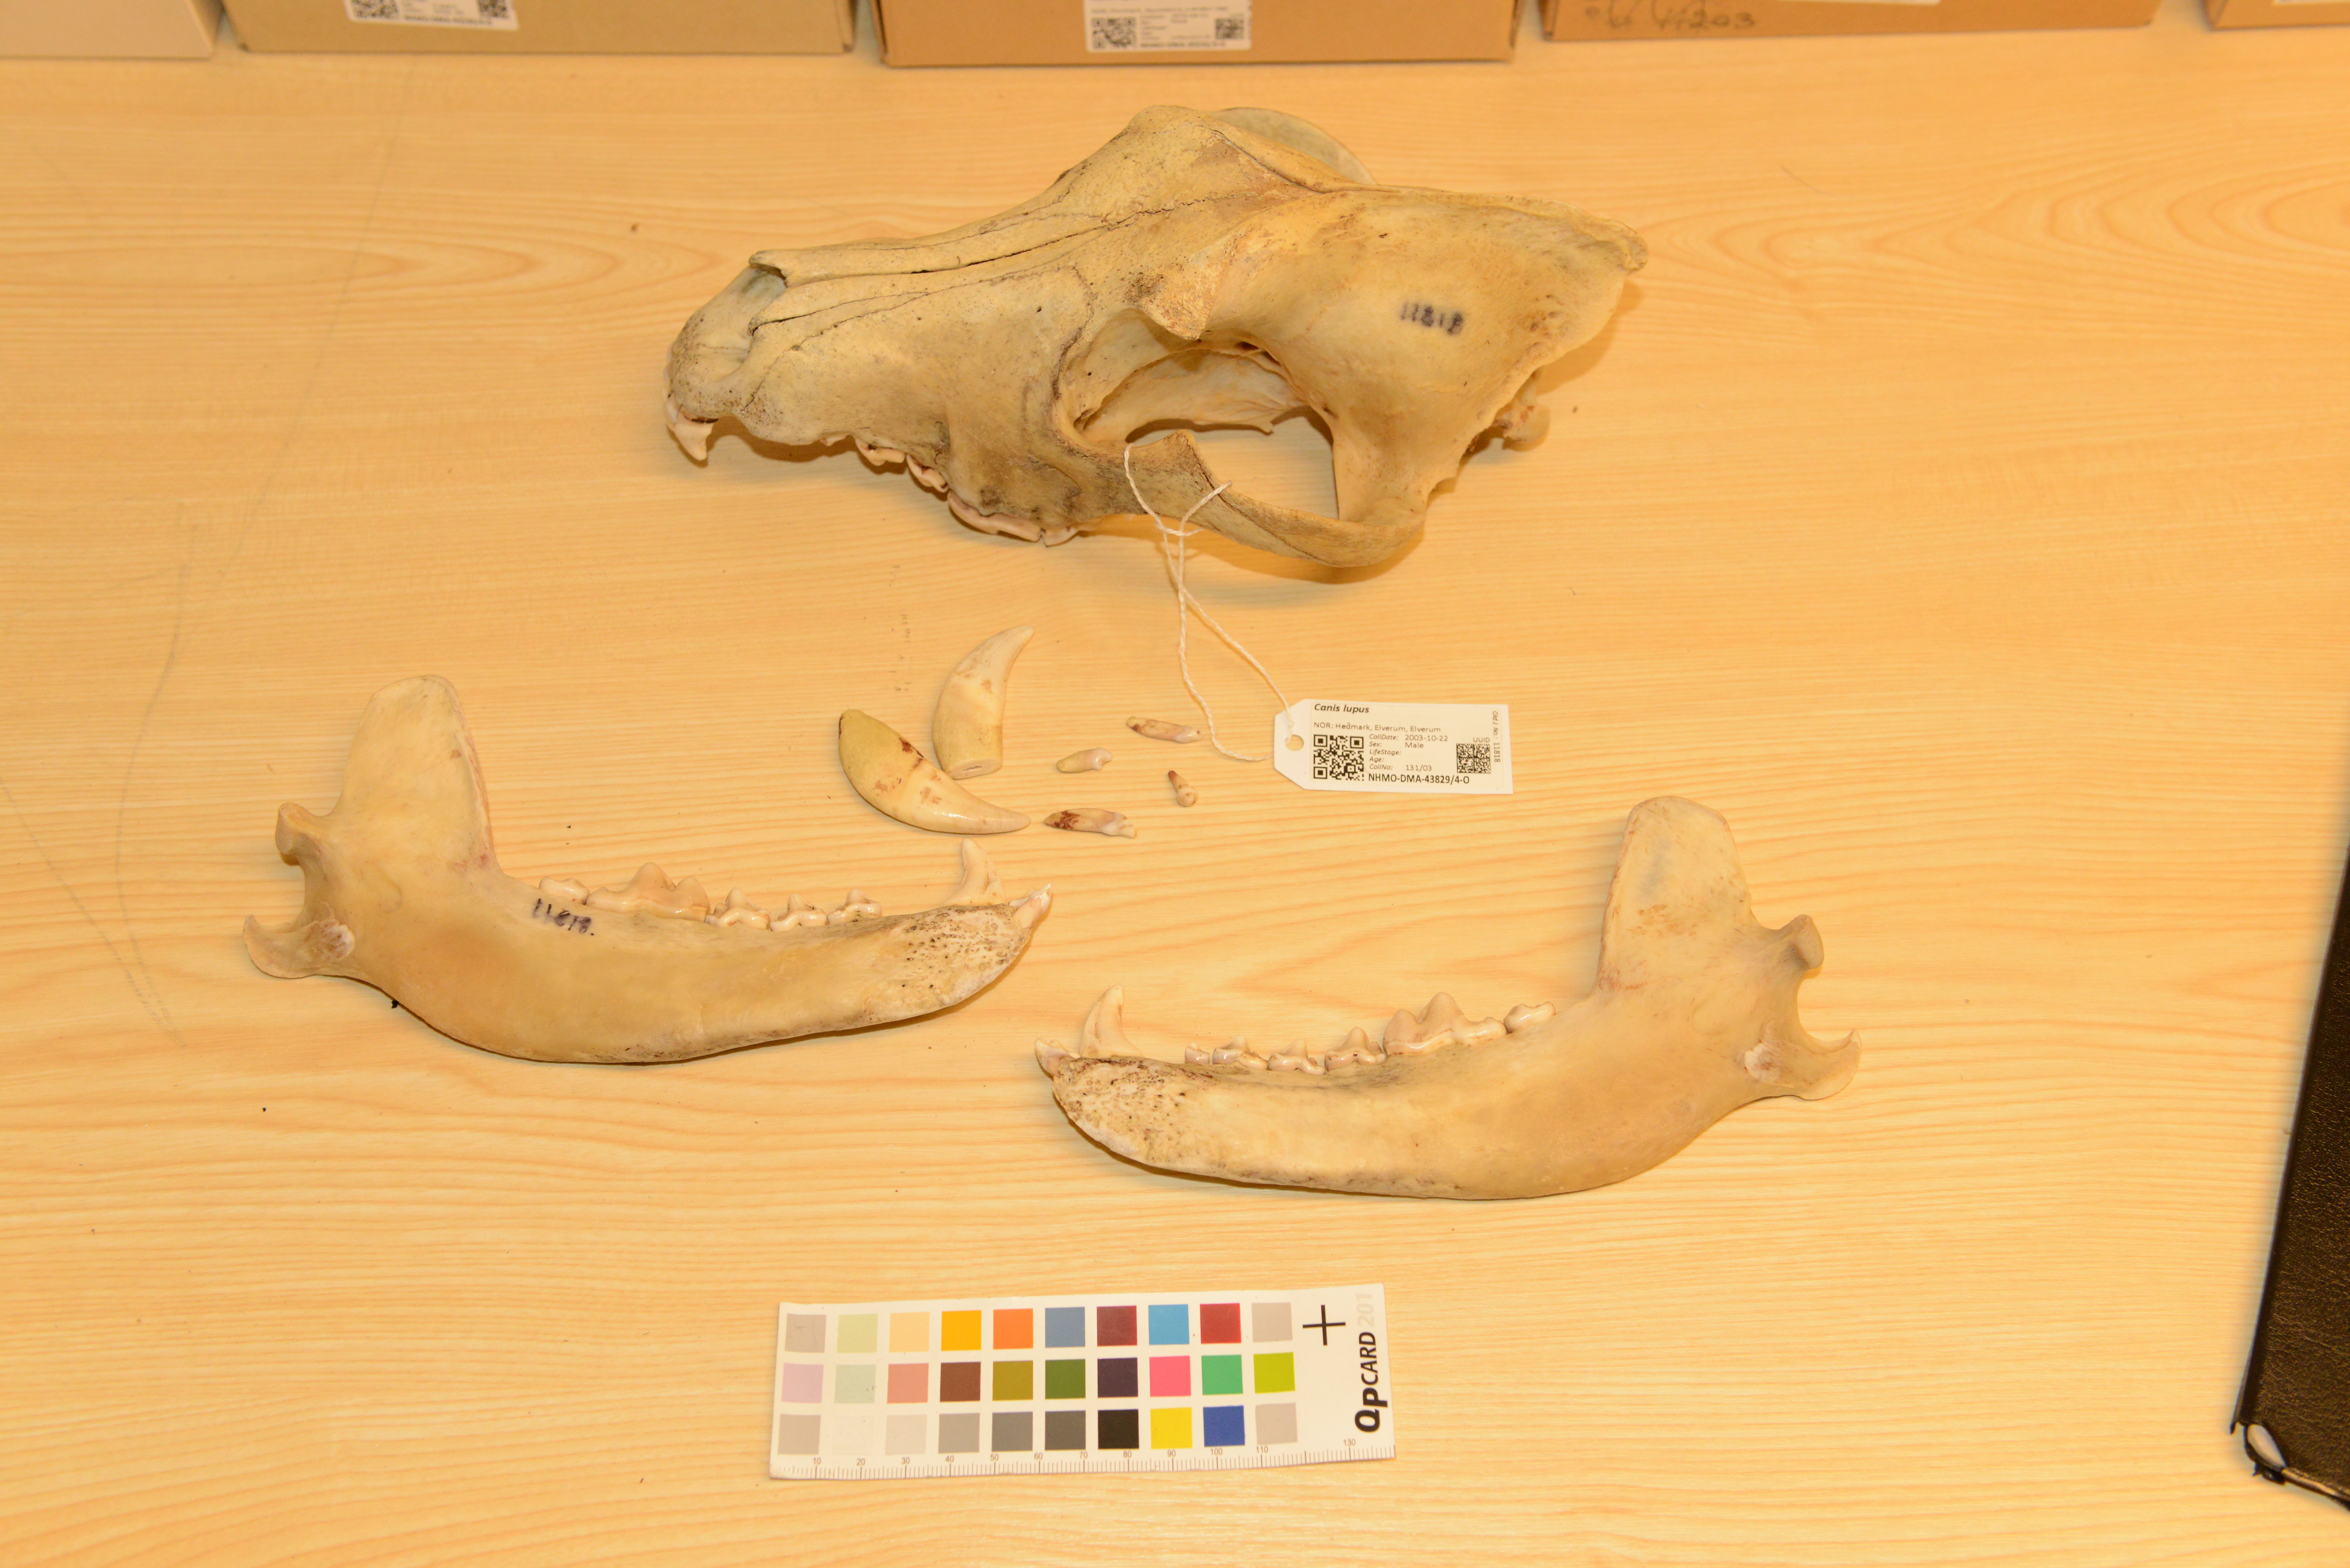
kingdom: Animalia
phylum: Chordata
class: Mammalia
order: Carnivora
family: Canidae
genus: Canis
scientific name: Canis lupus
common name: Gray wolf
